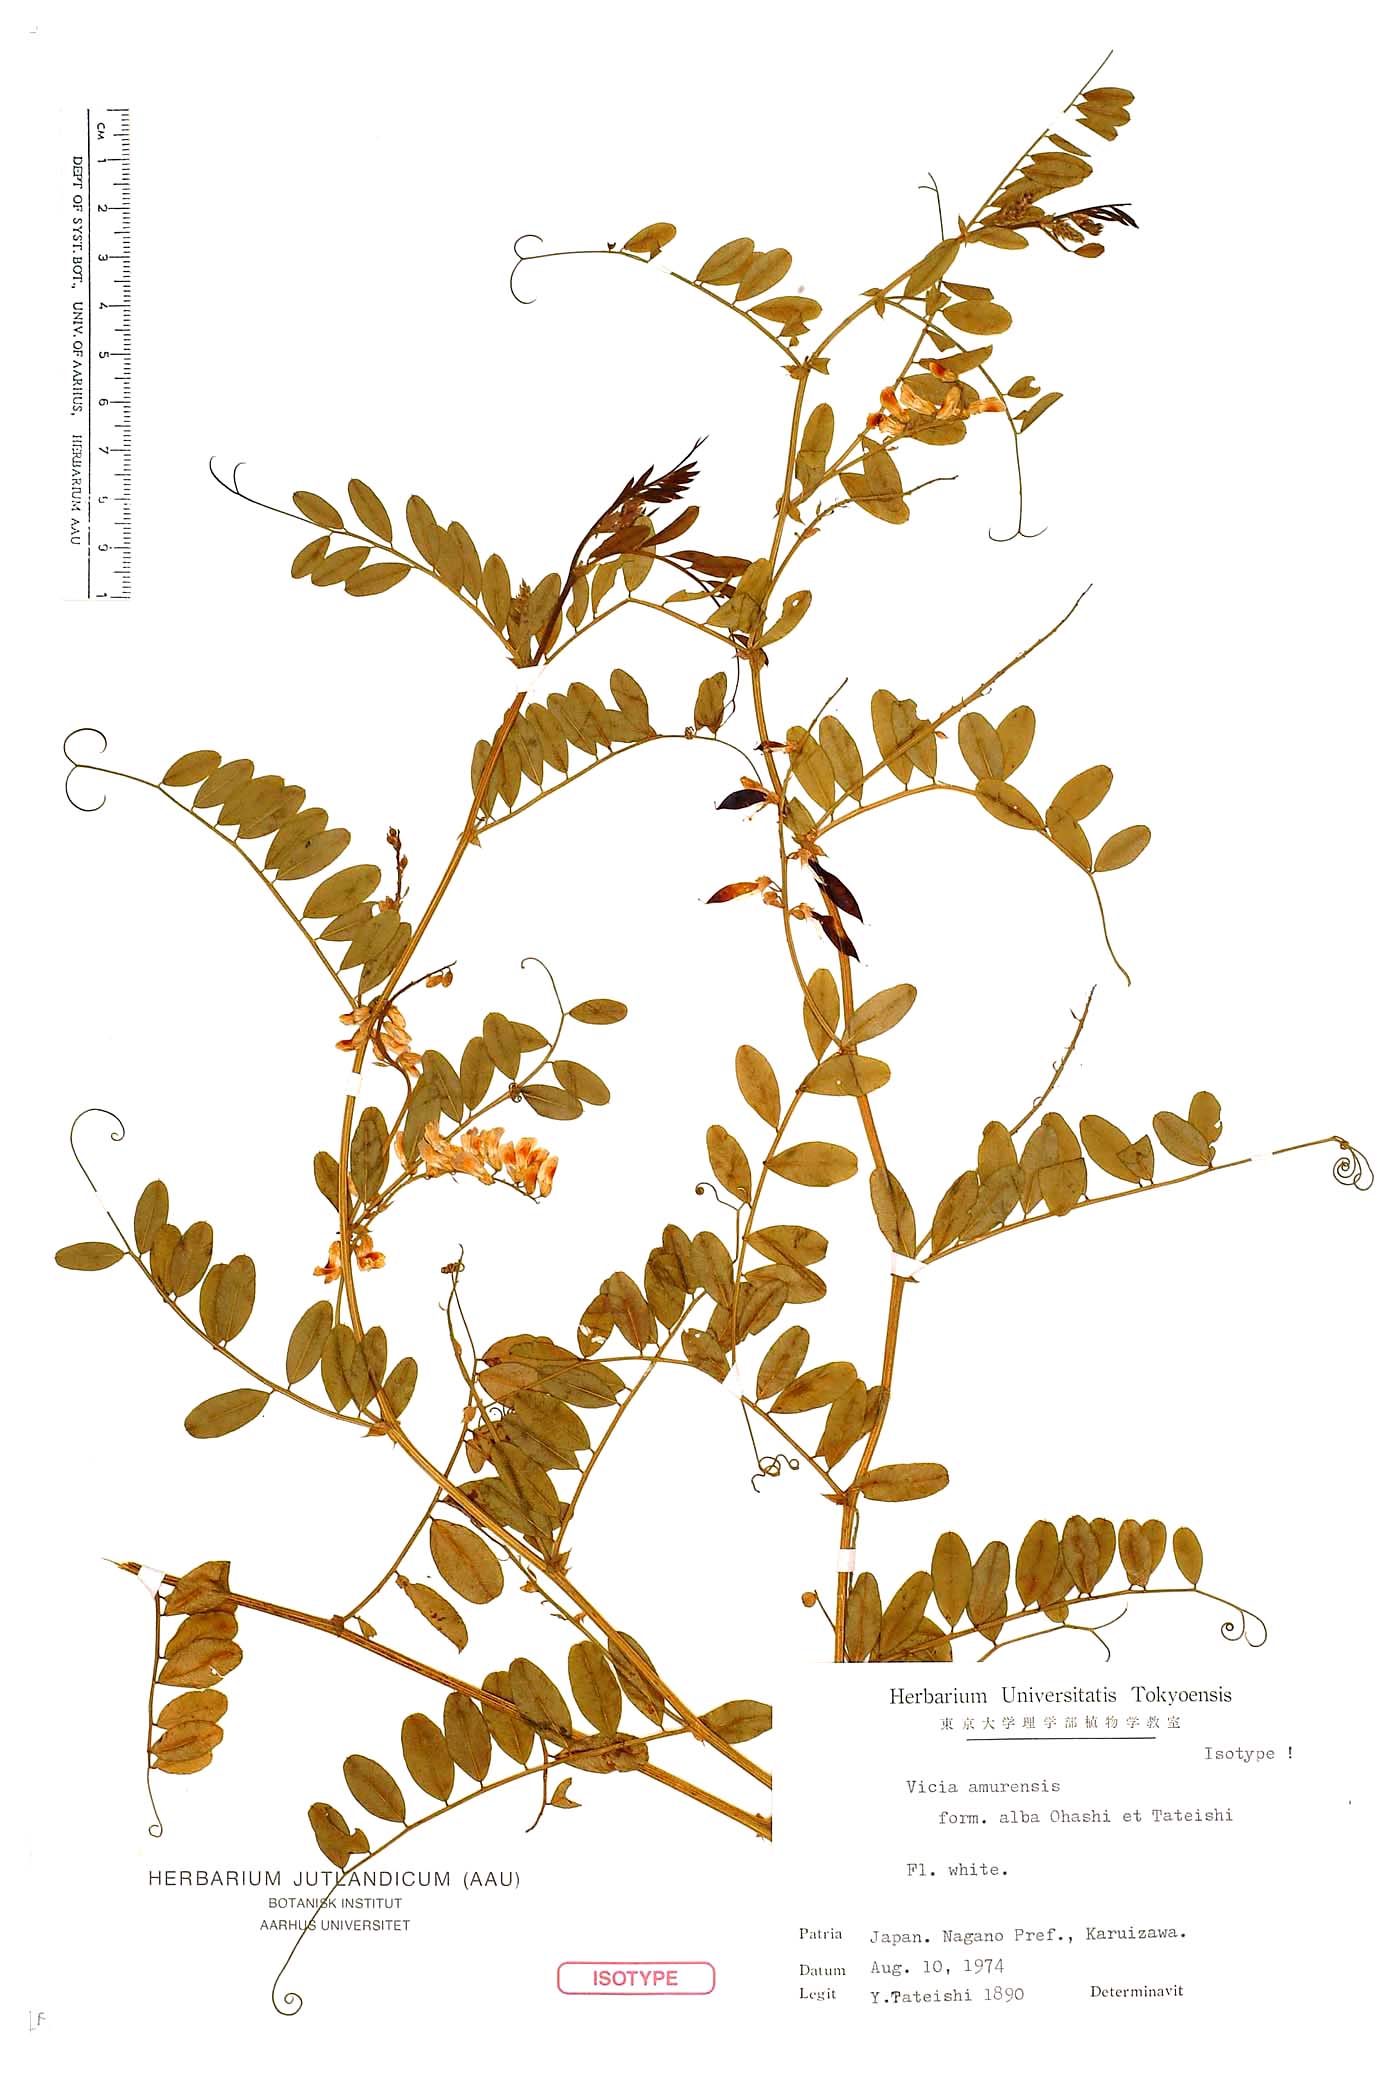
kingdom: Plantae
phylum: Tracheophyta
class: Magnoliopsida
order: Fabales
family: Fabaceae
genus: Vicia
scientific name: Vicia amurensis
